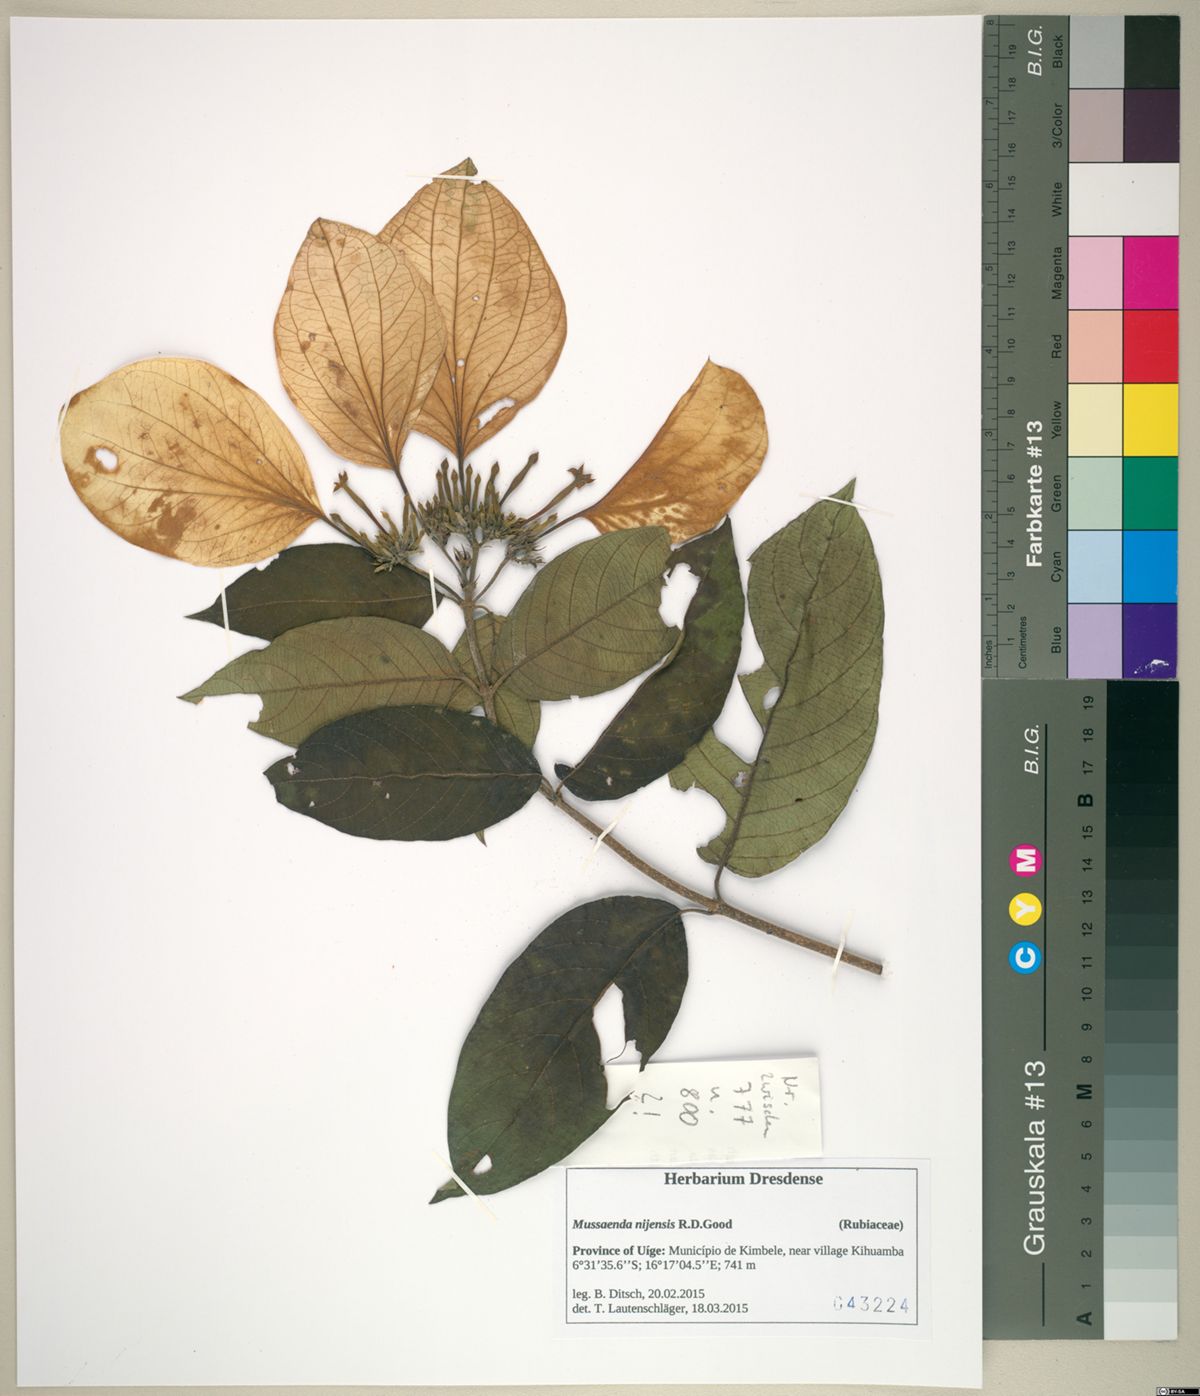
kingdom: Plantae
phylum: Tracheophyta
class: Magnoliopsida
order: Gentianales
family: Rubiaceae
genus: Mussaenda
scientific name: Mussaenda nijensis
